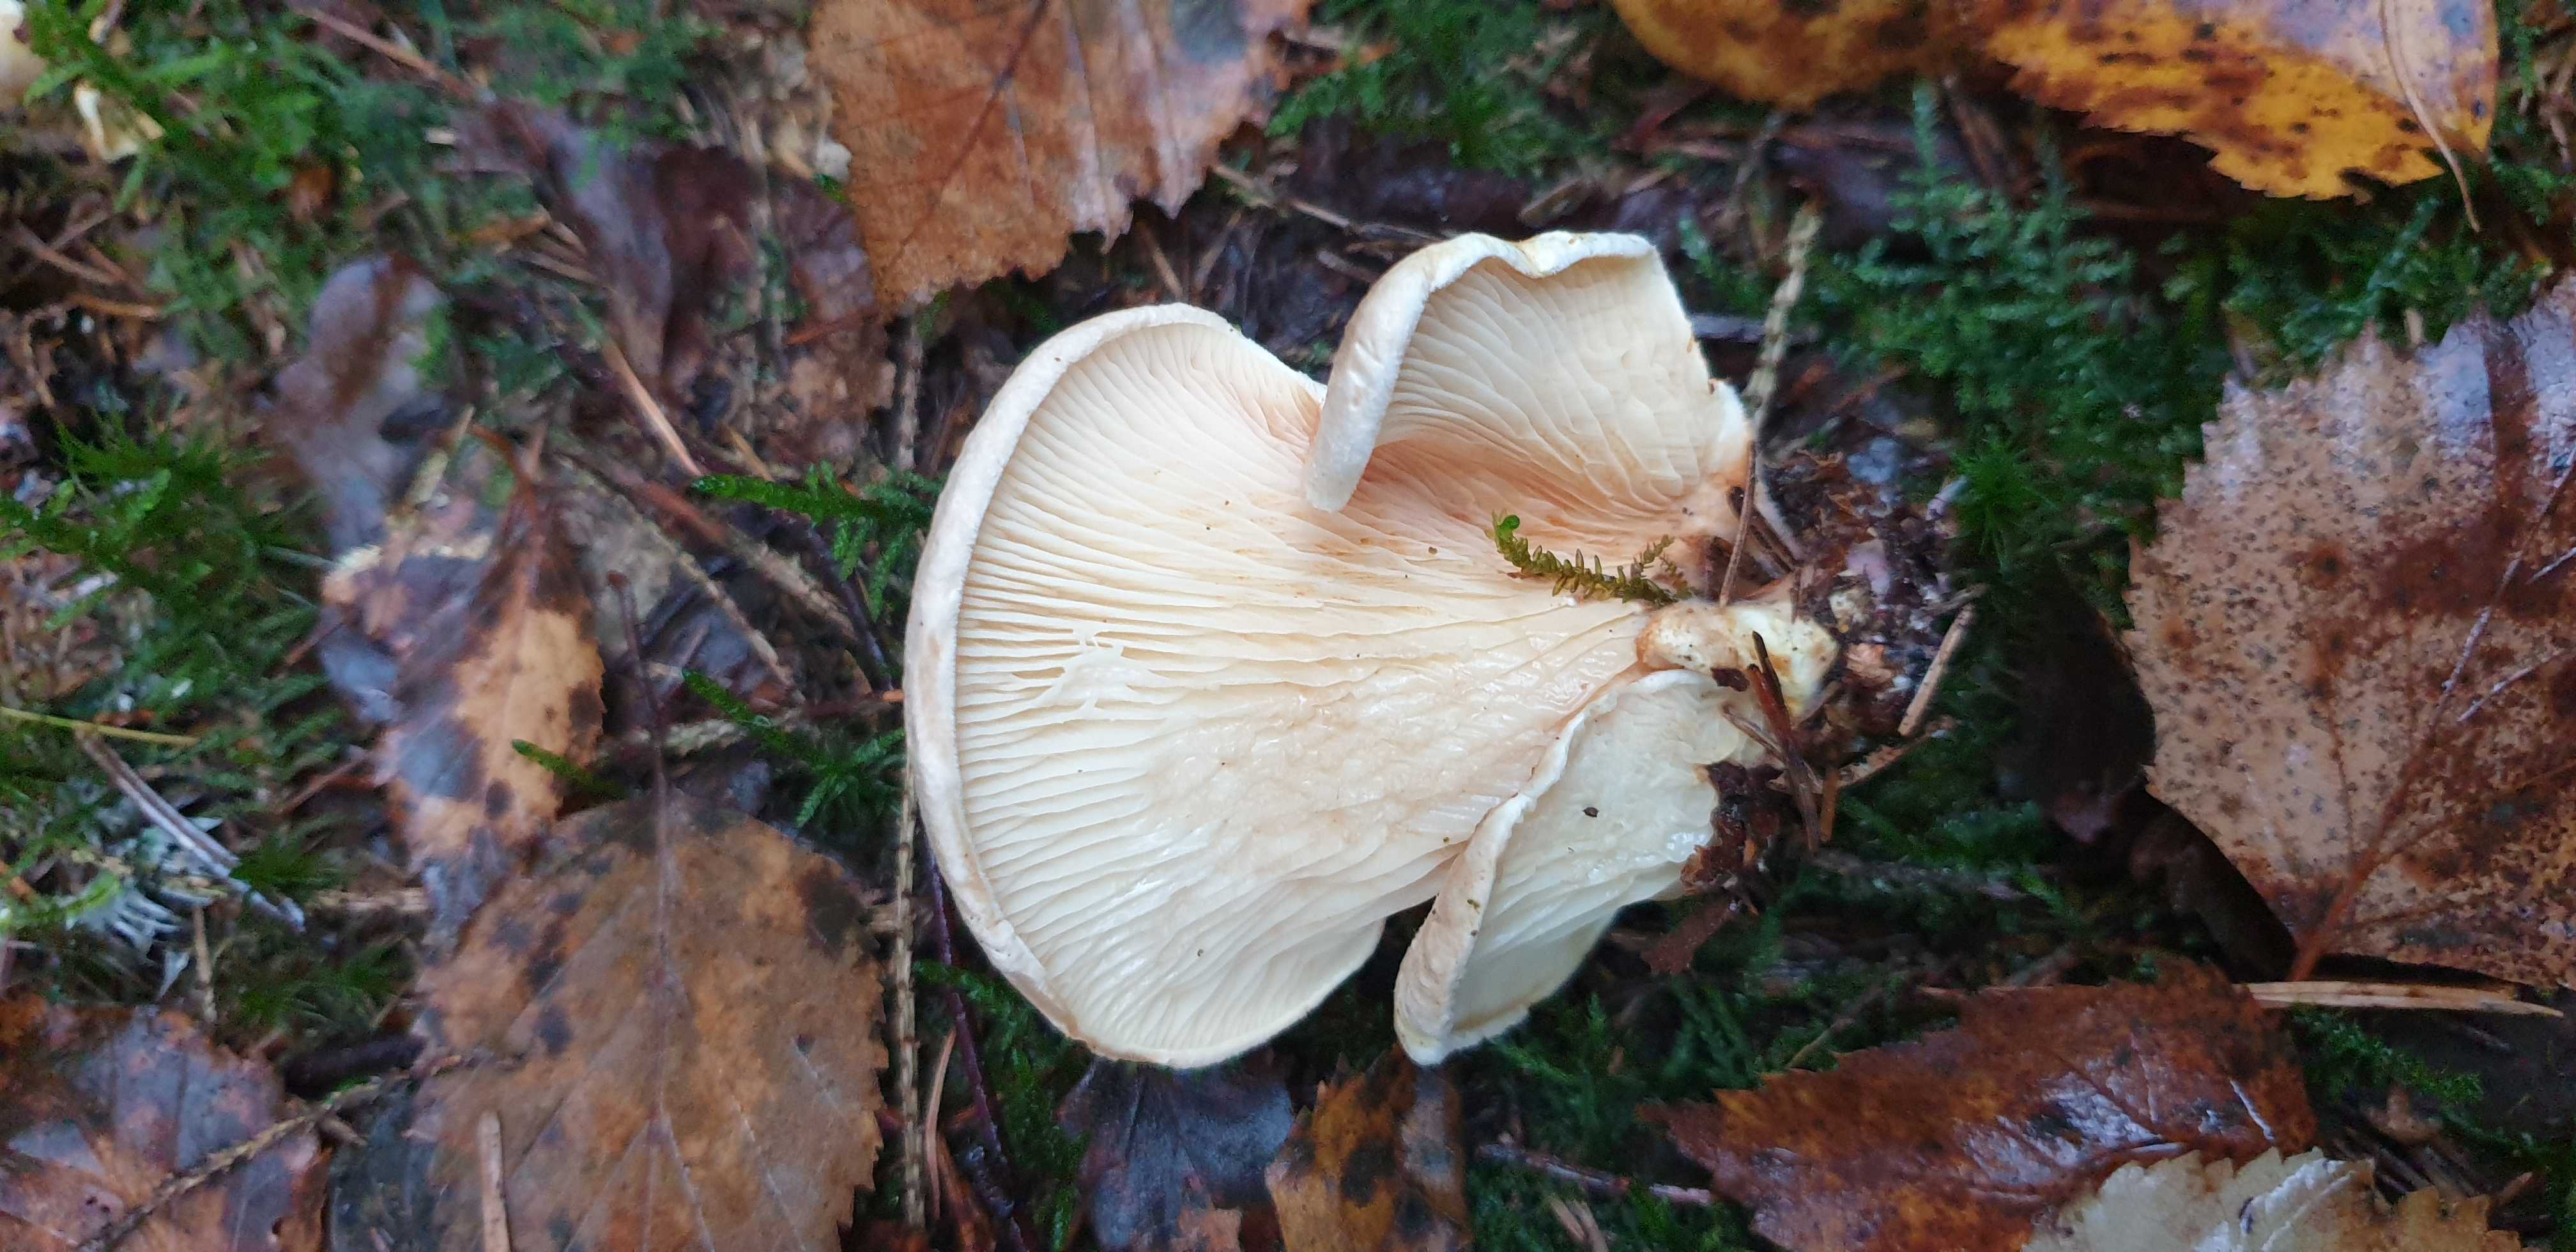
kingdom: Fungi
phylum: Basidiomycota
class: Agaricomycetes
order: Boletales
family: Tapinellaceae
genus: Tapinella
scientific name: Tapinella panuoides
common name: tømmer-viftesvamp
